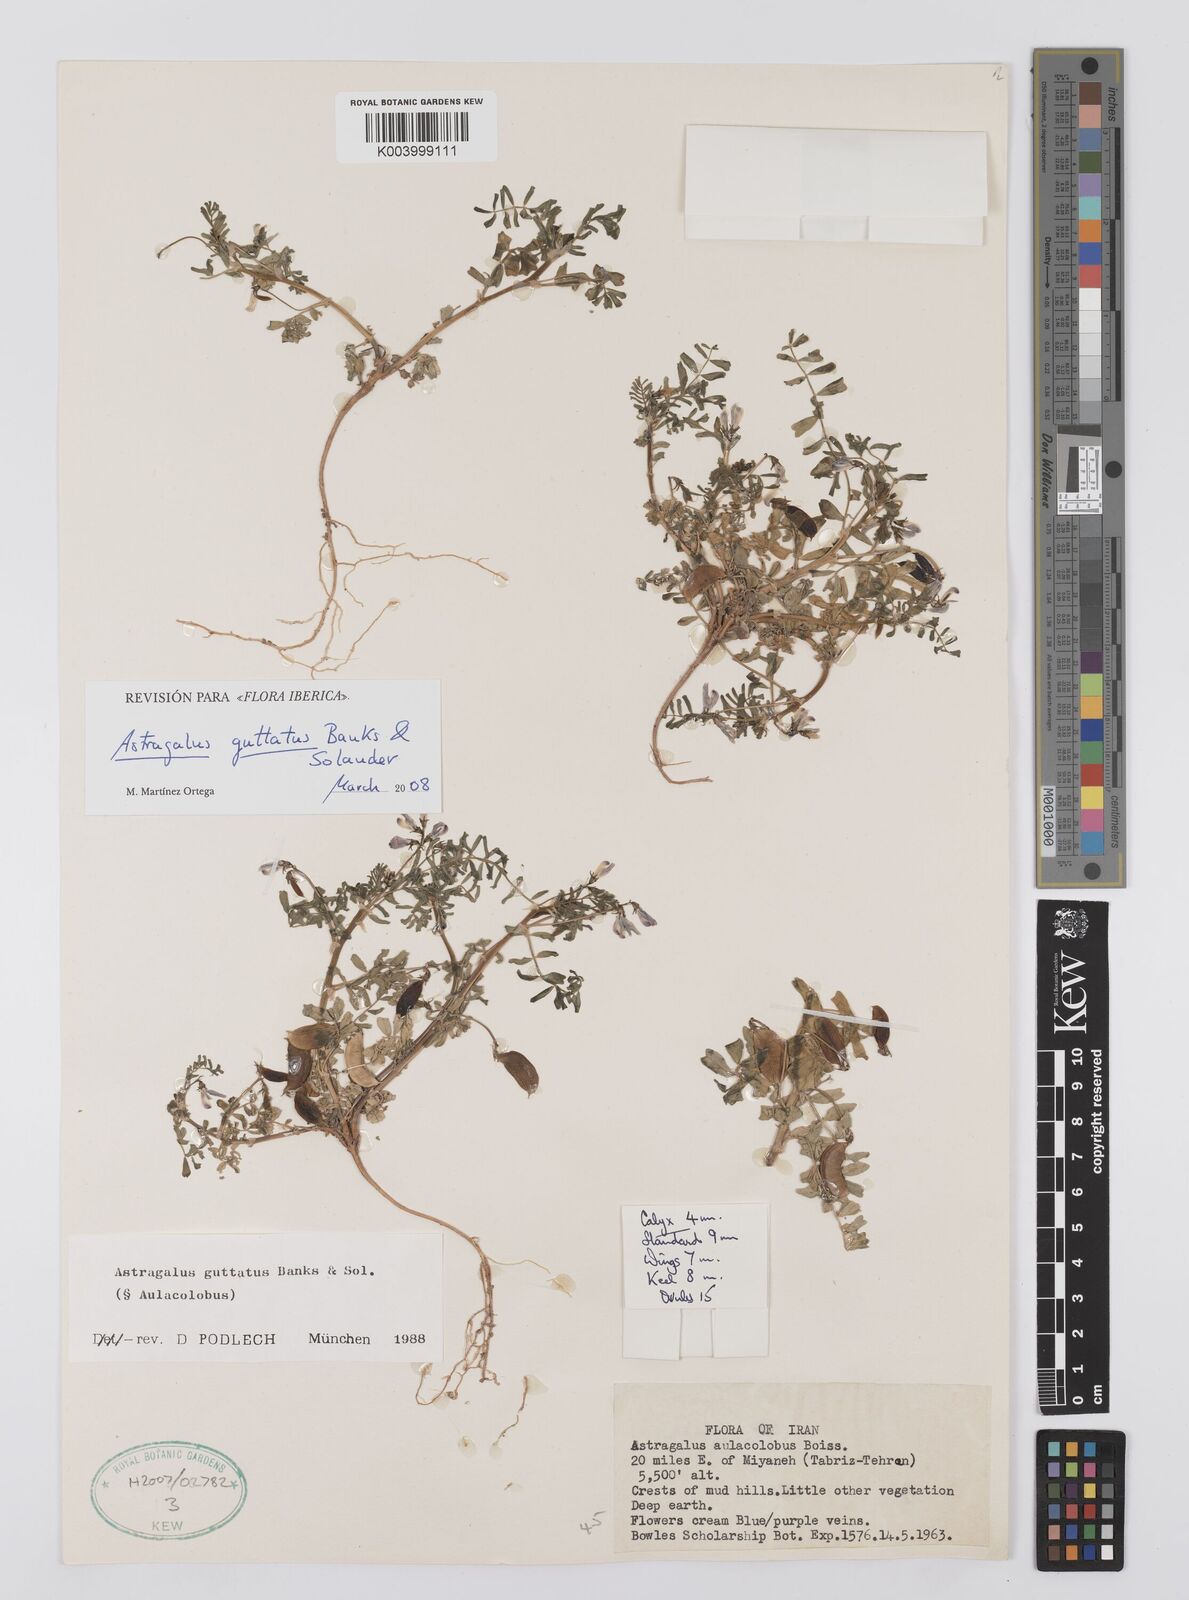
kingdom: Plantae
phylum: Tracheophyta
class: Magnoliopsida
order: Fabales
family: Fabaceae
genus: Astragalus
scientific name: Astragalus guttatus
